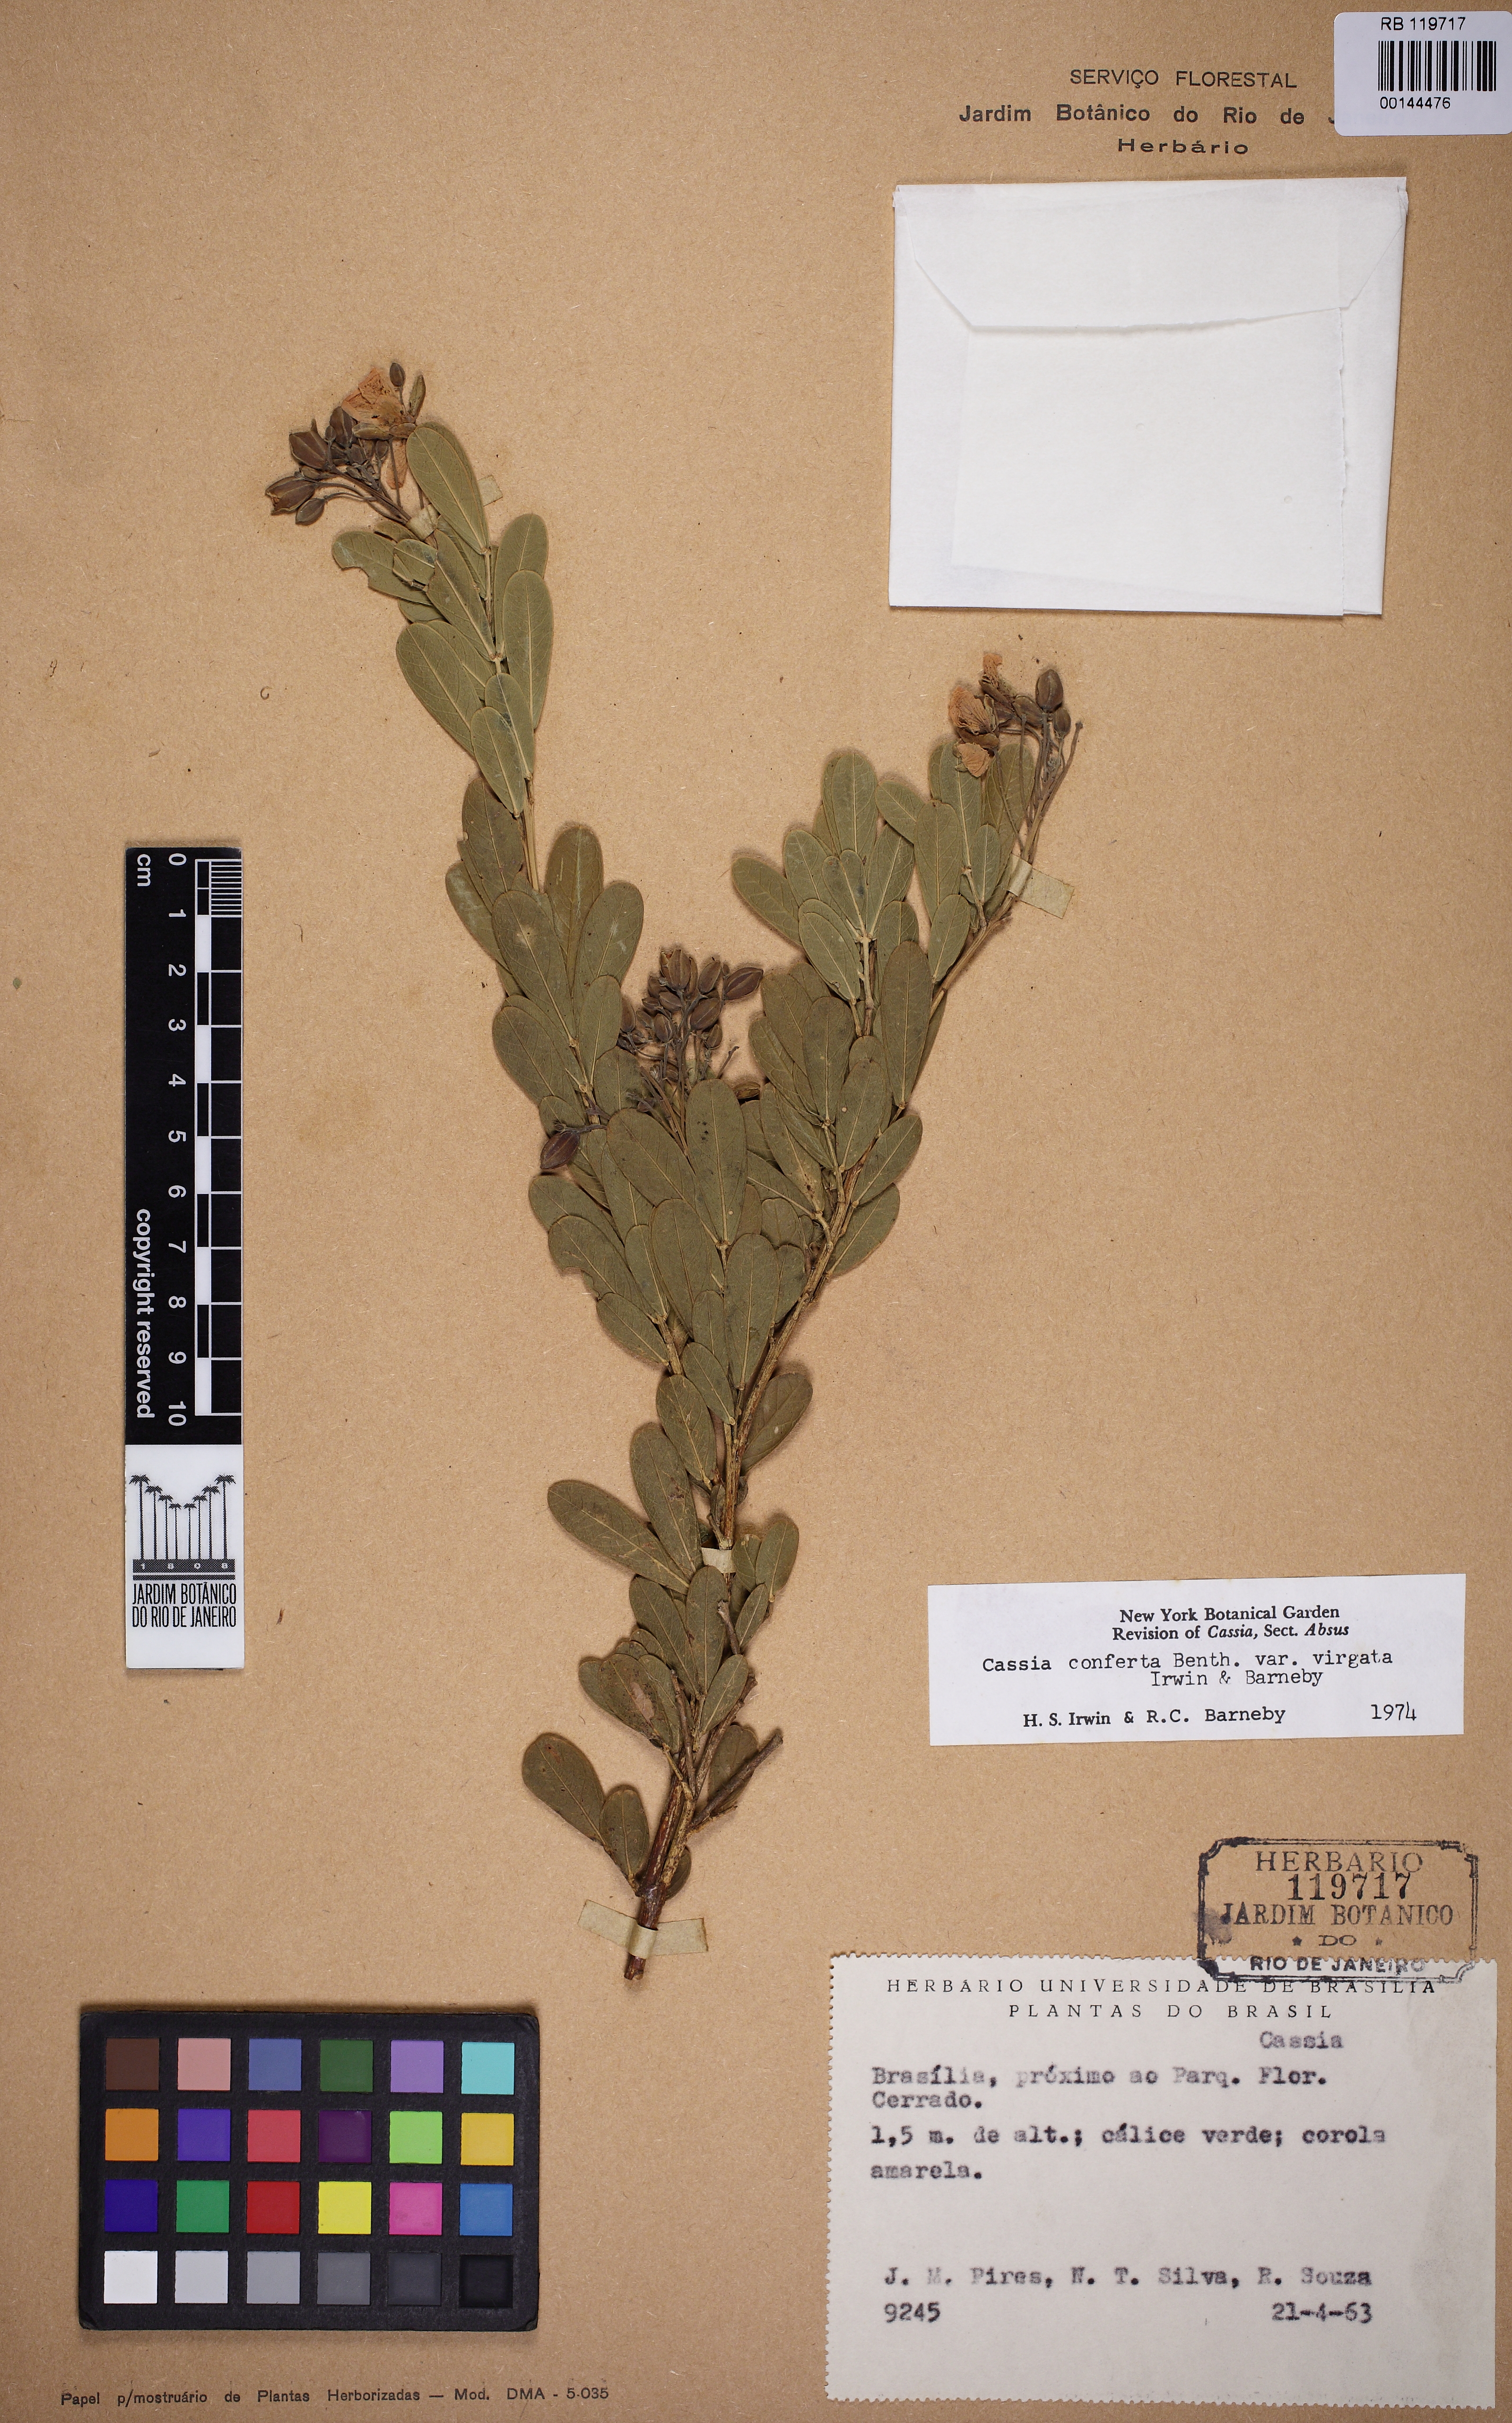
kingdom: Plantae
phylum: Tracheophyta
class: Magnoliopsida
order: Fabales
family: Fabaceae
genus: Chamaecrista
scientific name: Chamaecrista conferta
